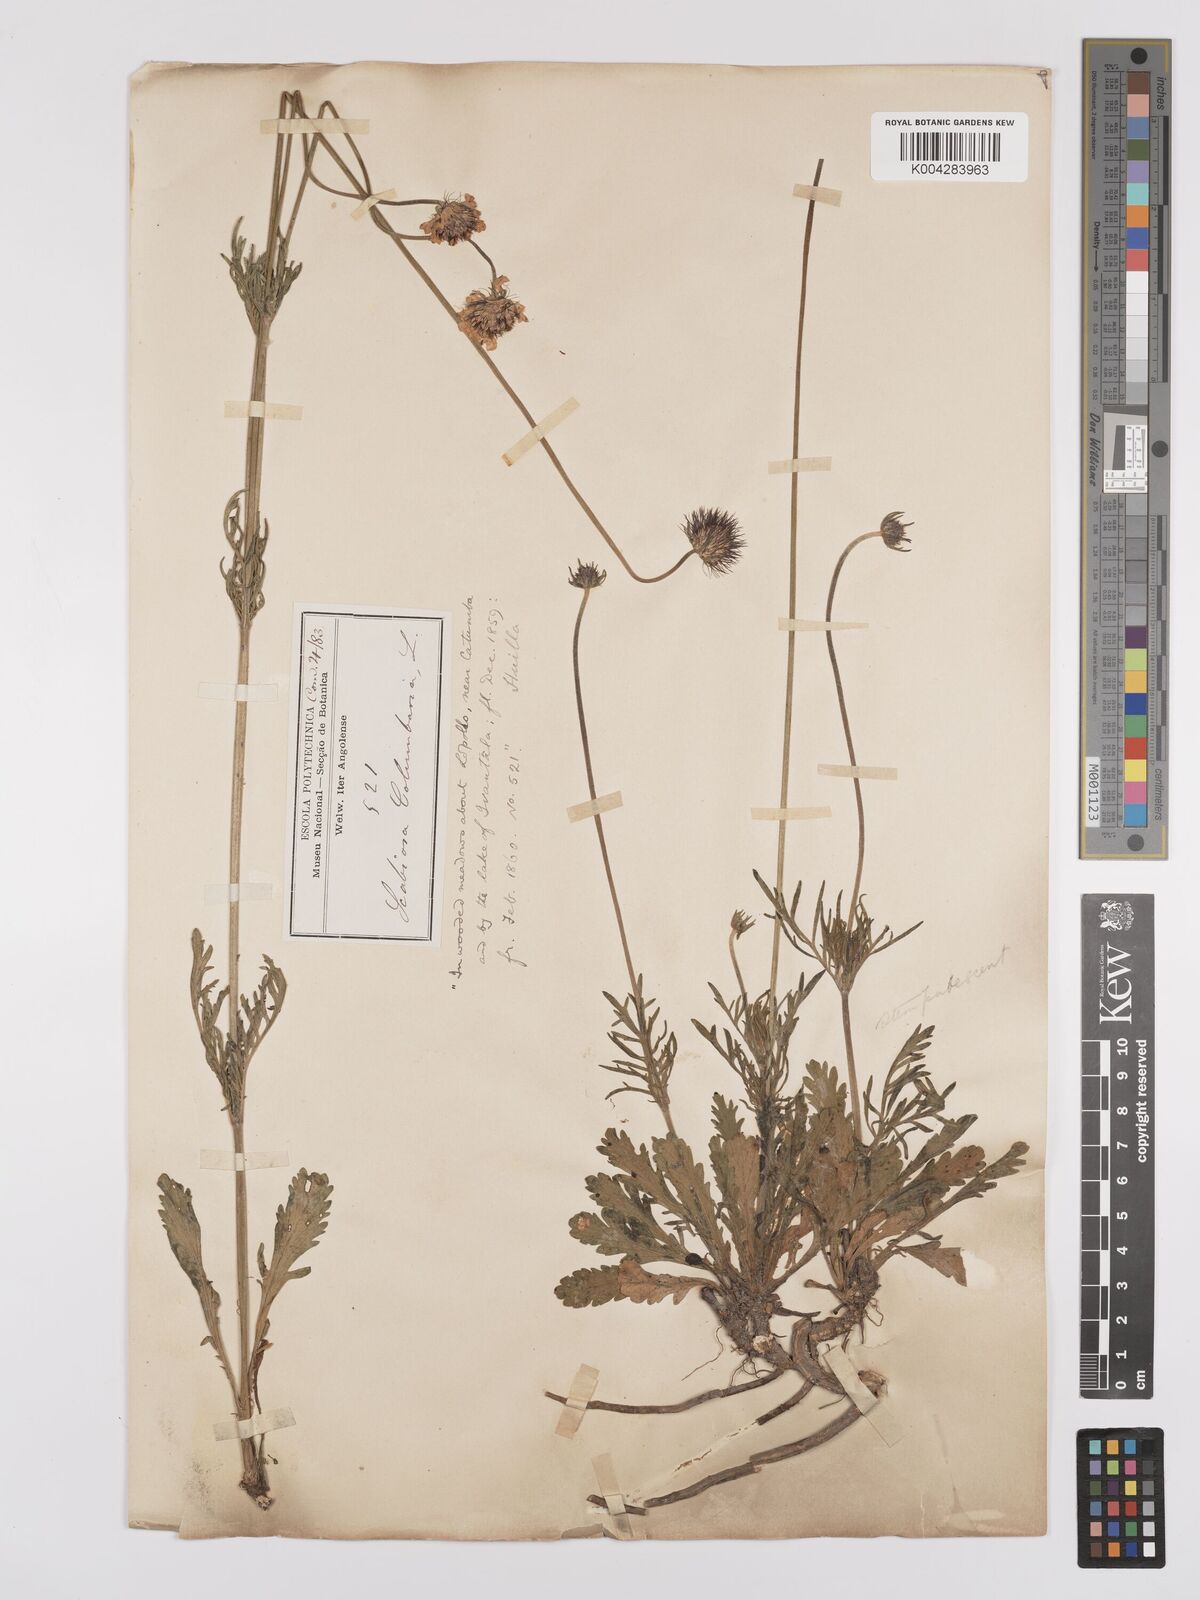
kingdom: Plantae
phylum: Tracheophyta
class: Magnoliopsida
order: Dipsacales
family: Caprifoliaceae
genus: Scabiosa
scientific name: Scabiosa columbaria
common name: Small scabious
